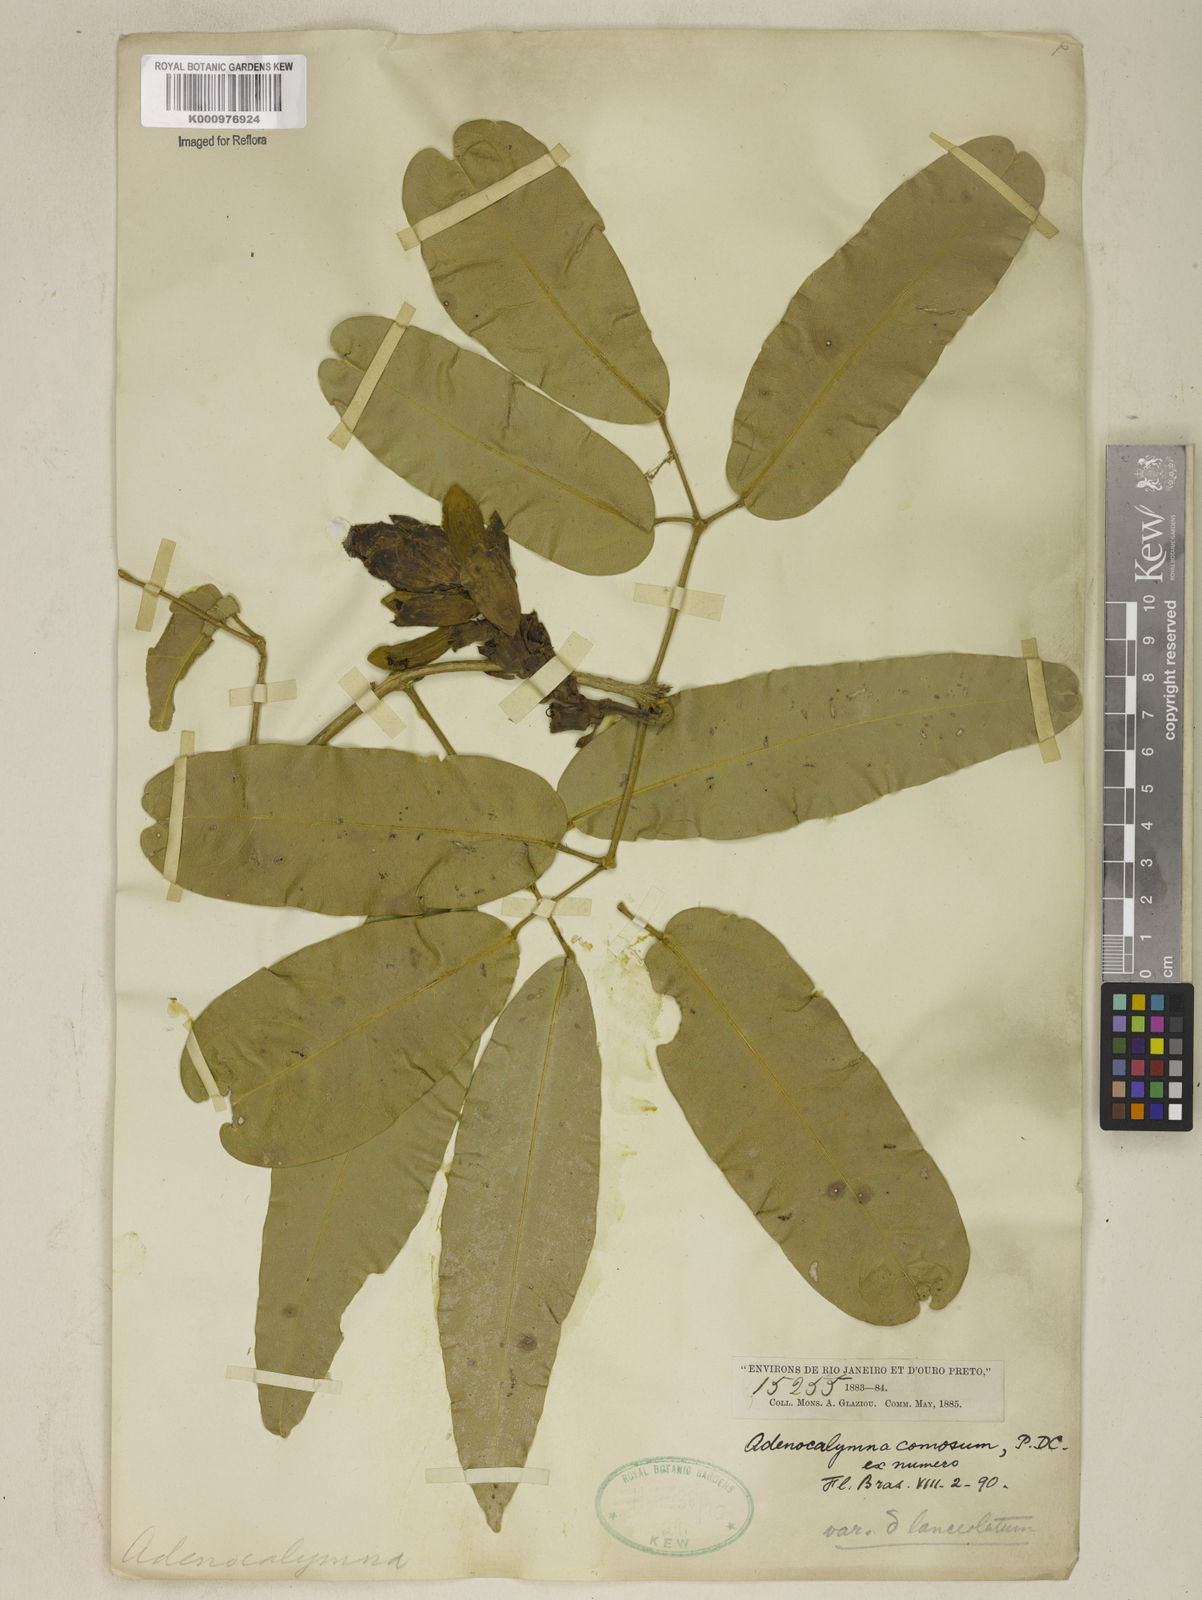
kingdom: Plantae
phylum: Tracheophyta
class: Magnoliopsida
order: Lamiales
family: Bignoniaceae
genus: Adenocalymma
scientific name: Adenocalymma acutissimum
